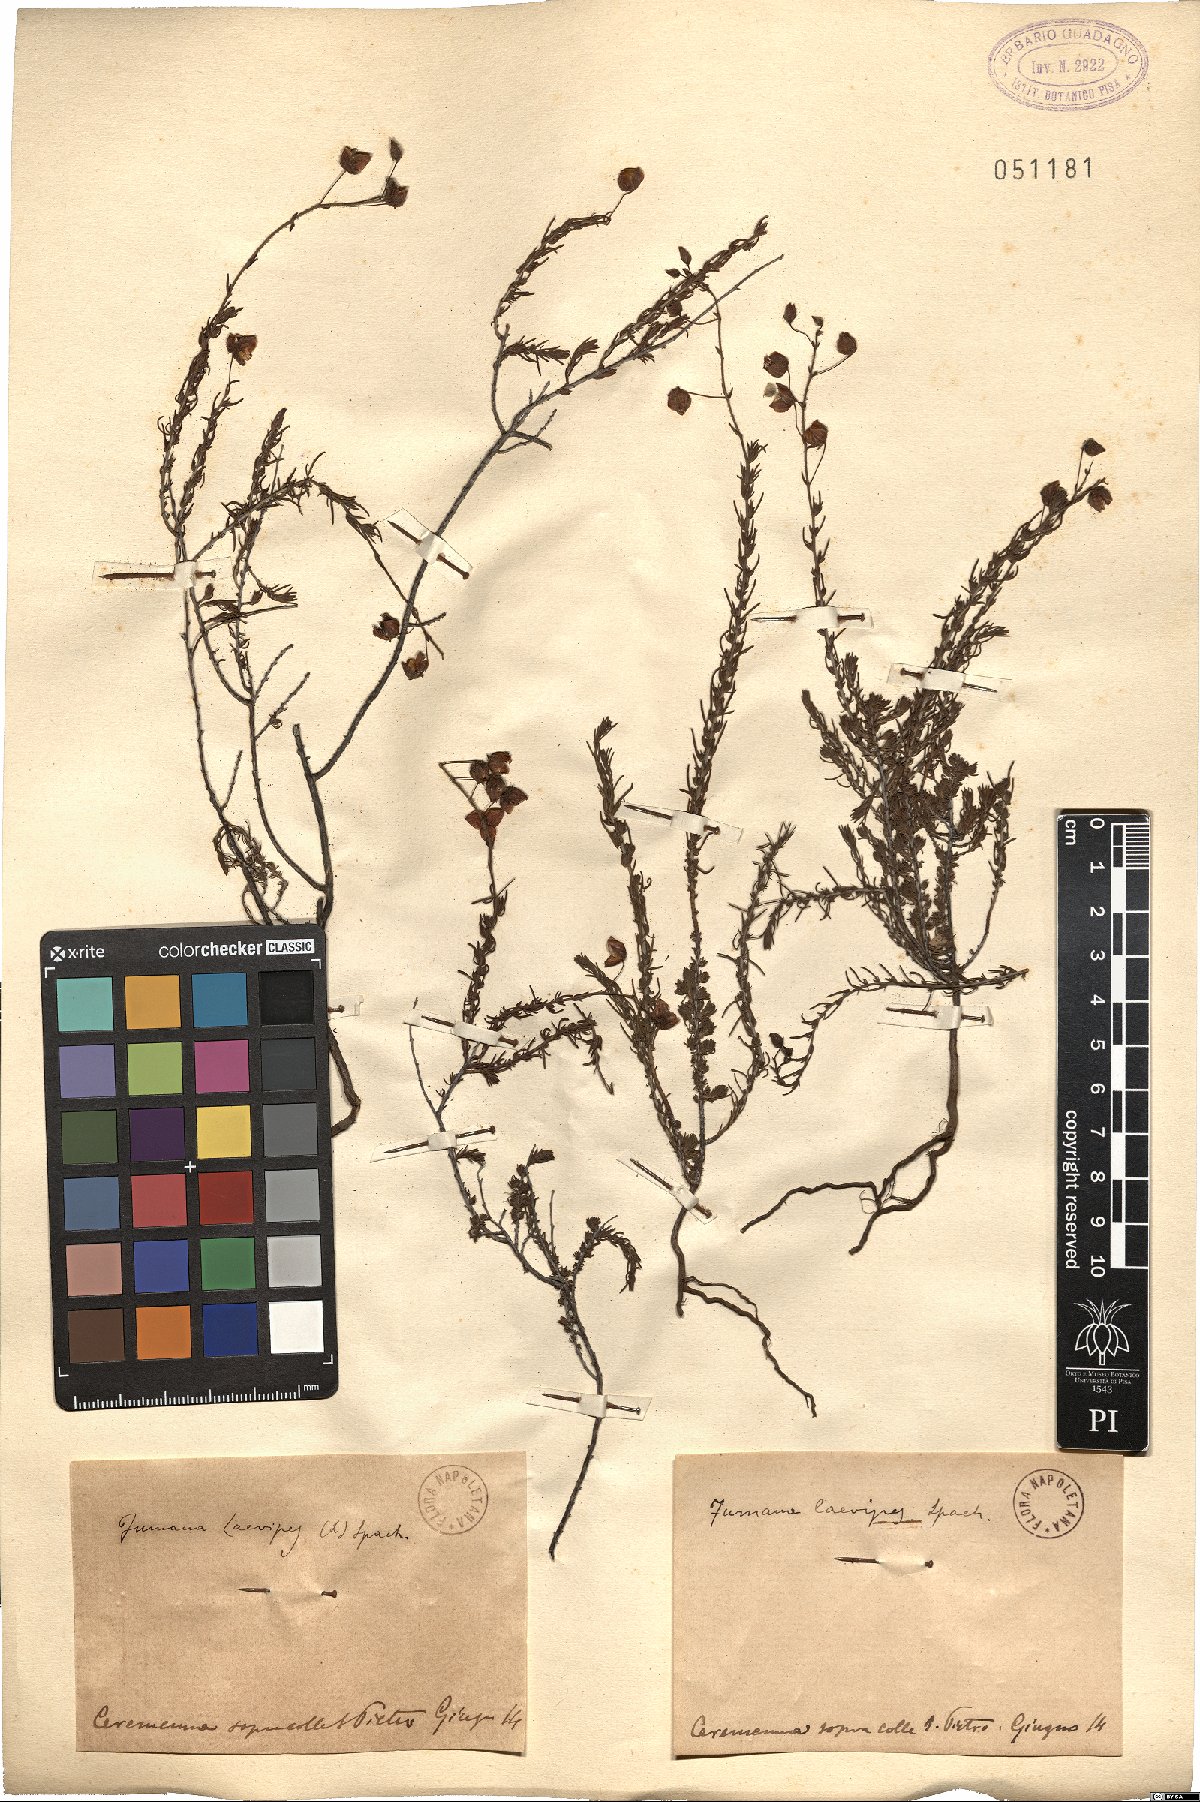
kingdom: Plantae
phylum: Tracheophyta
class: Magnoliopsida
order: Malvales
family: Cistaceae
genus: Fumana
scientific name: Fumana laevipes
